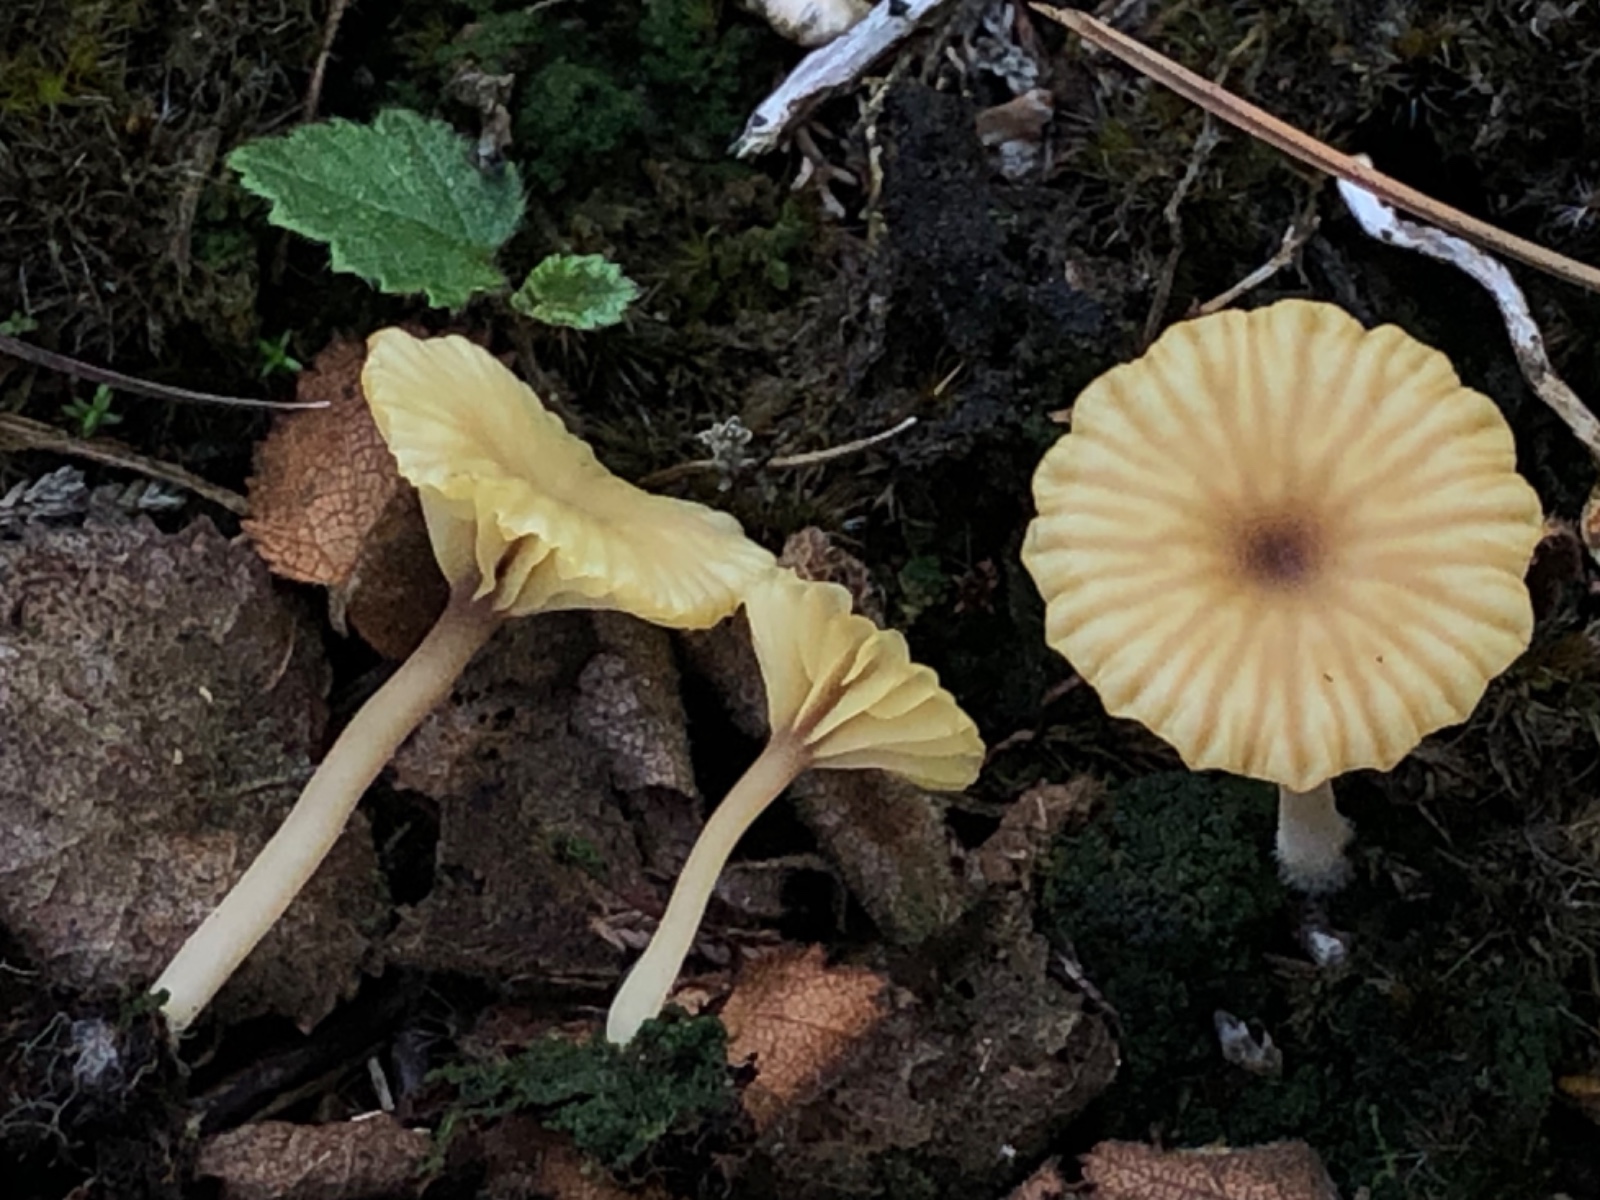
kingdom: Fungi
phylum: Basidiomycota
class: Agaricomycetes
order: Agaricales
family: Hygrophoraceae
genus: Lichenomphalia
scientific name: Lichenomphalia umbellifera
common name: tørve-lavhat
